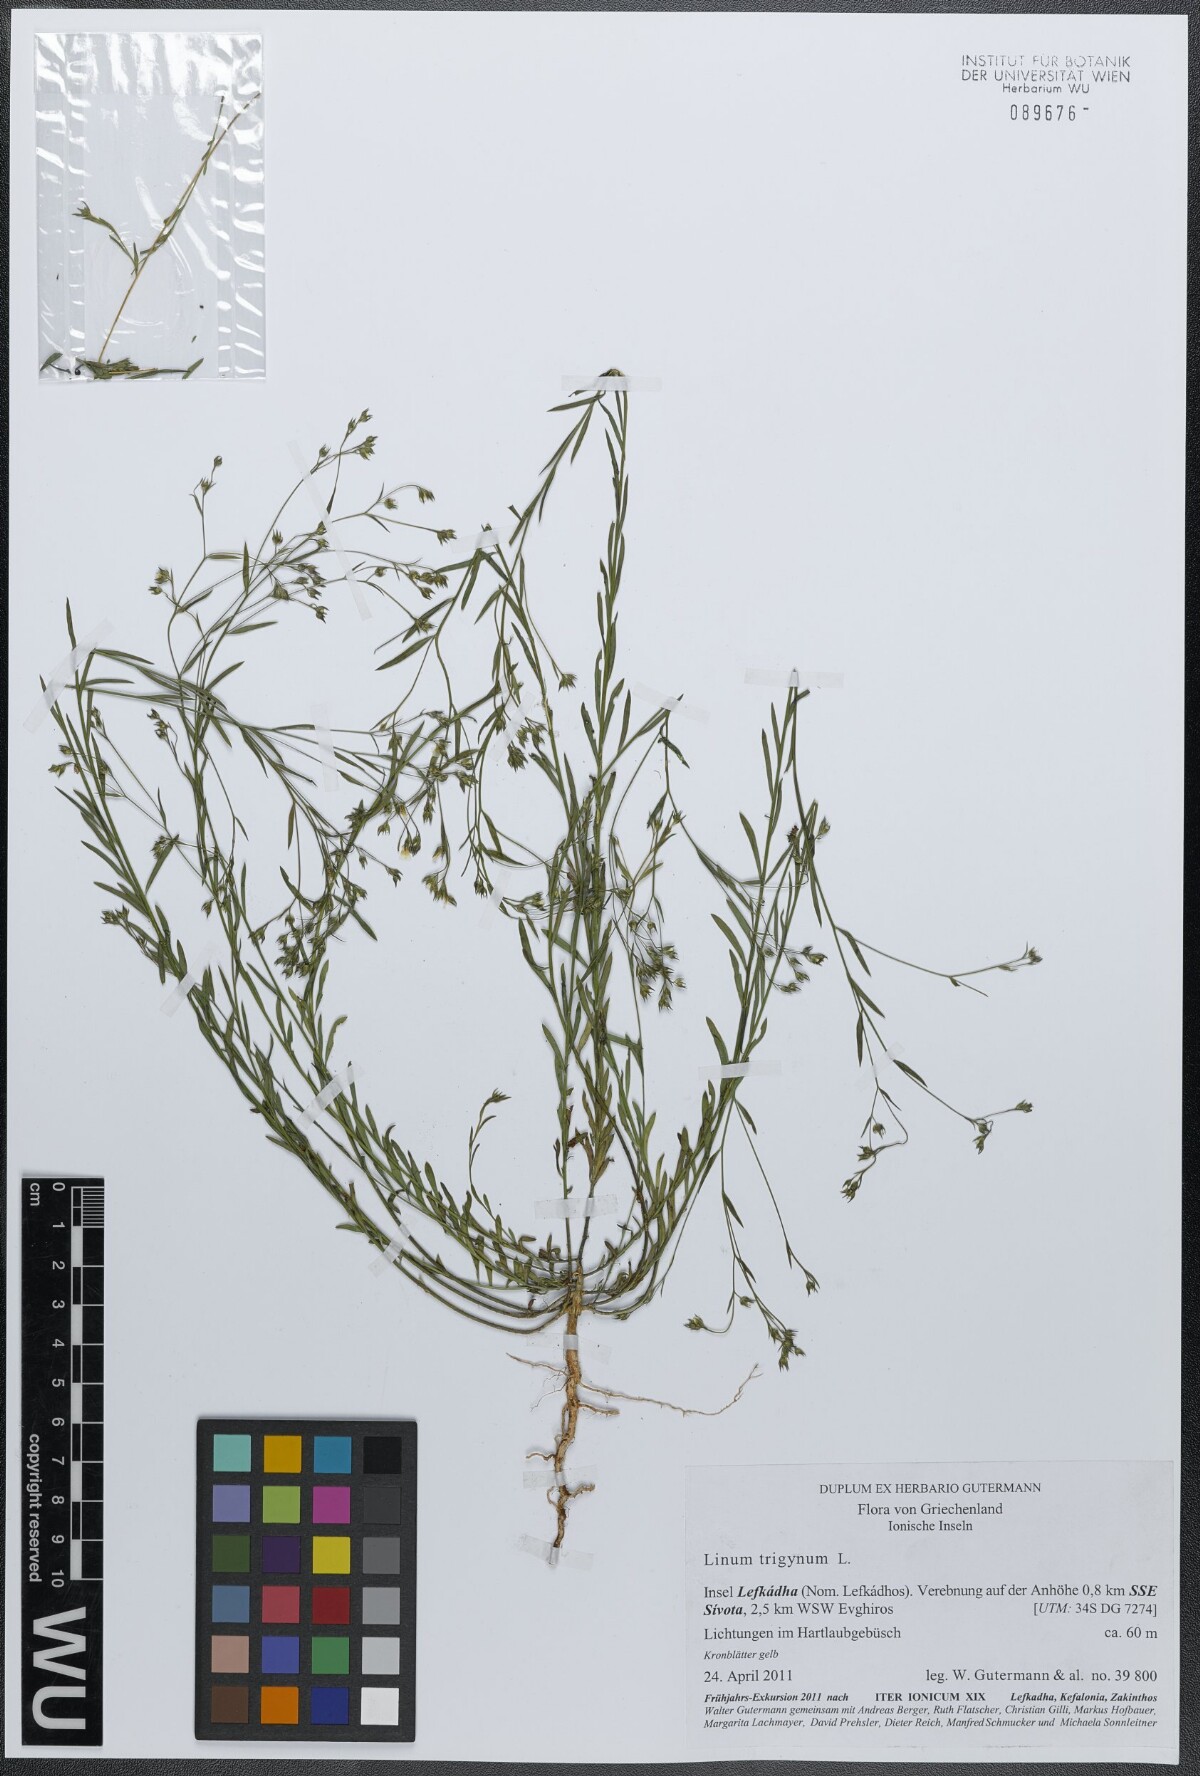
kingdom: Plantae
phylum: Tracheophyta
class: Magnoliopsida
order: Malpighiales
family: Linaceae
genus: Linum
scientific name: Linum trigynum
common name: French flax
